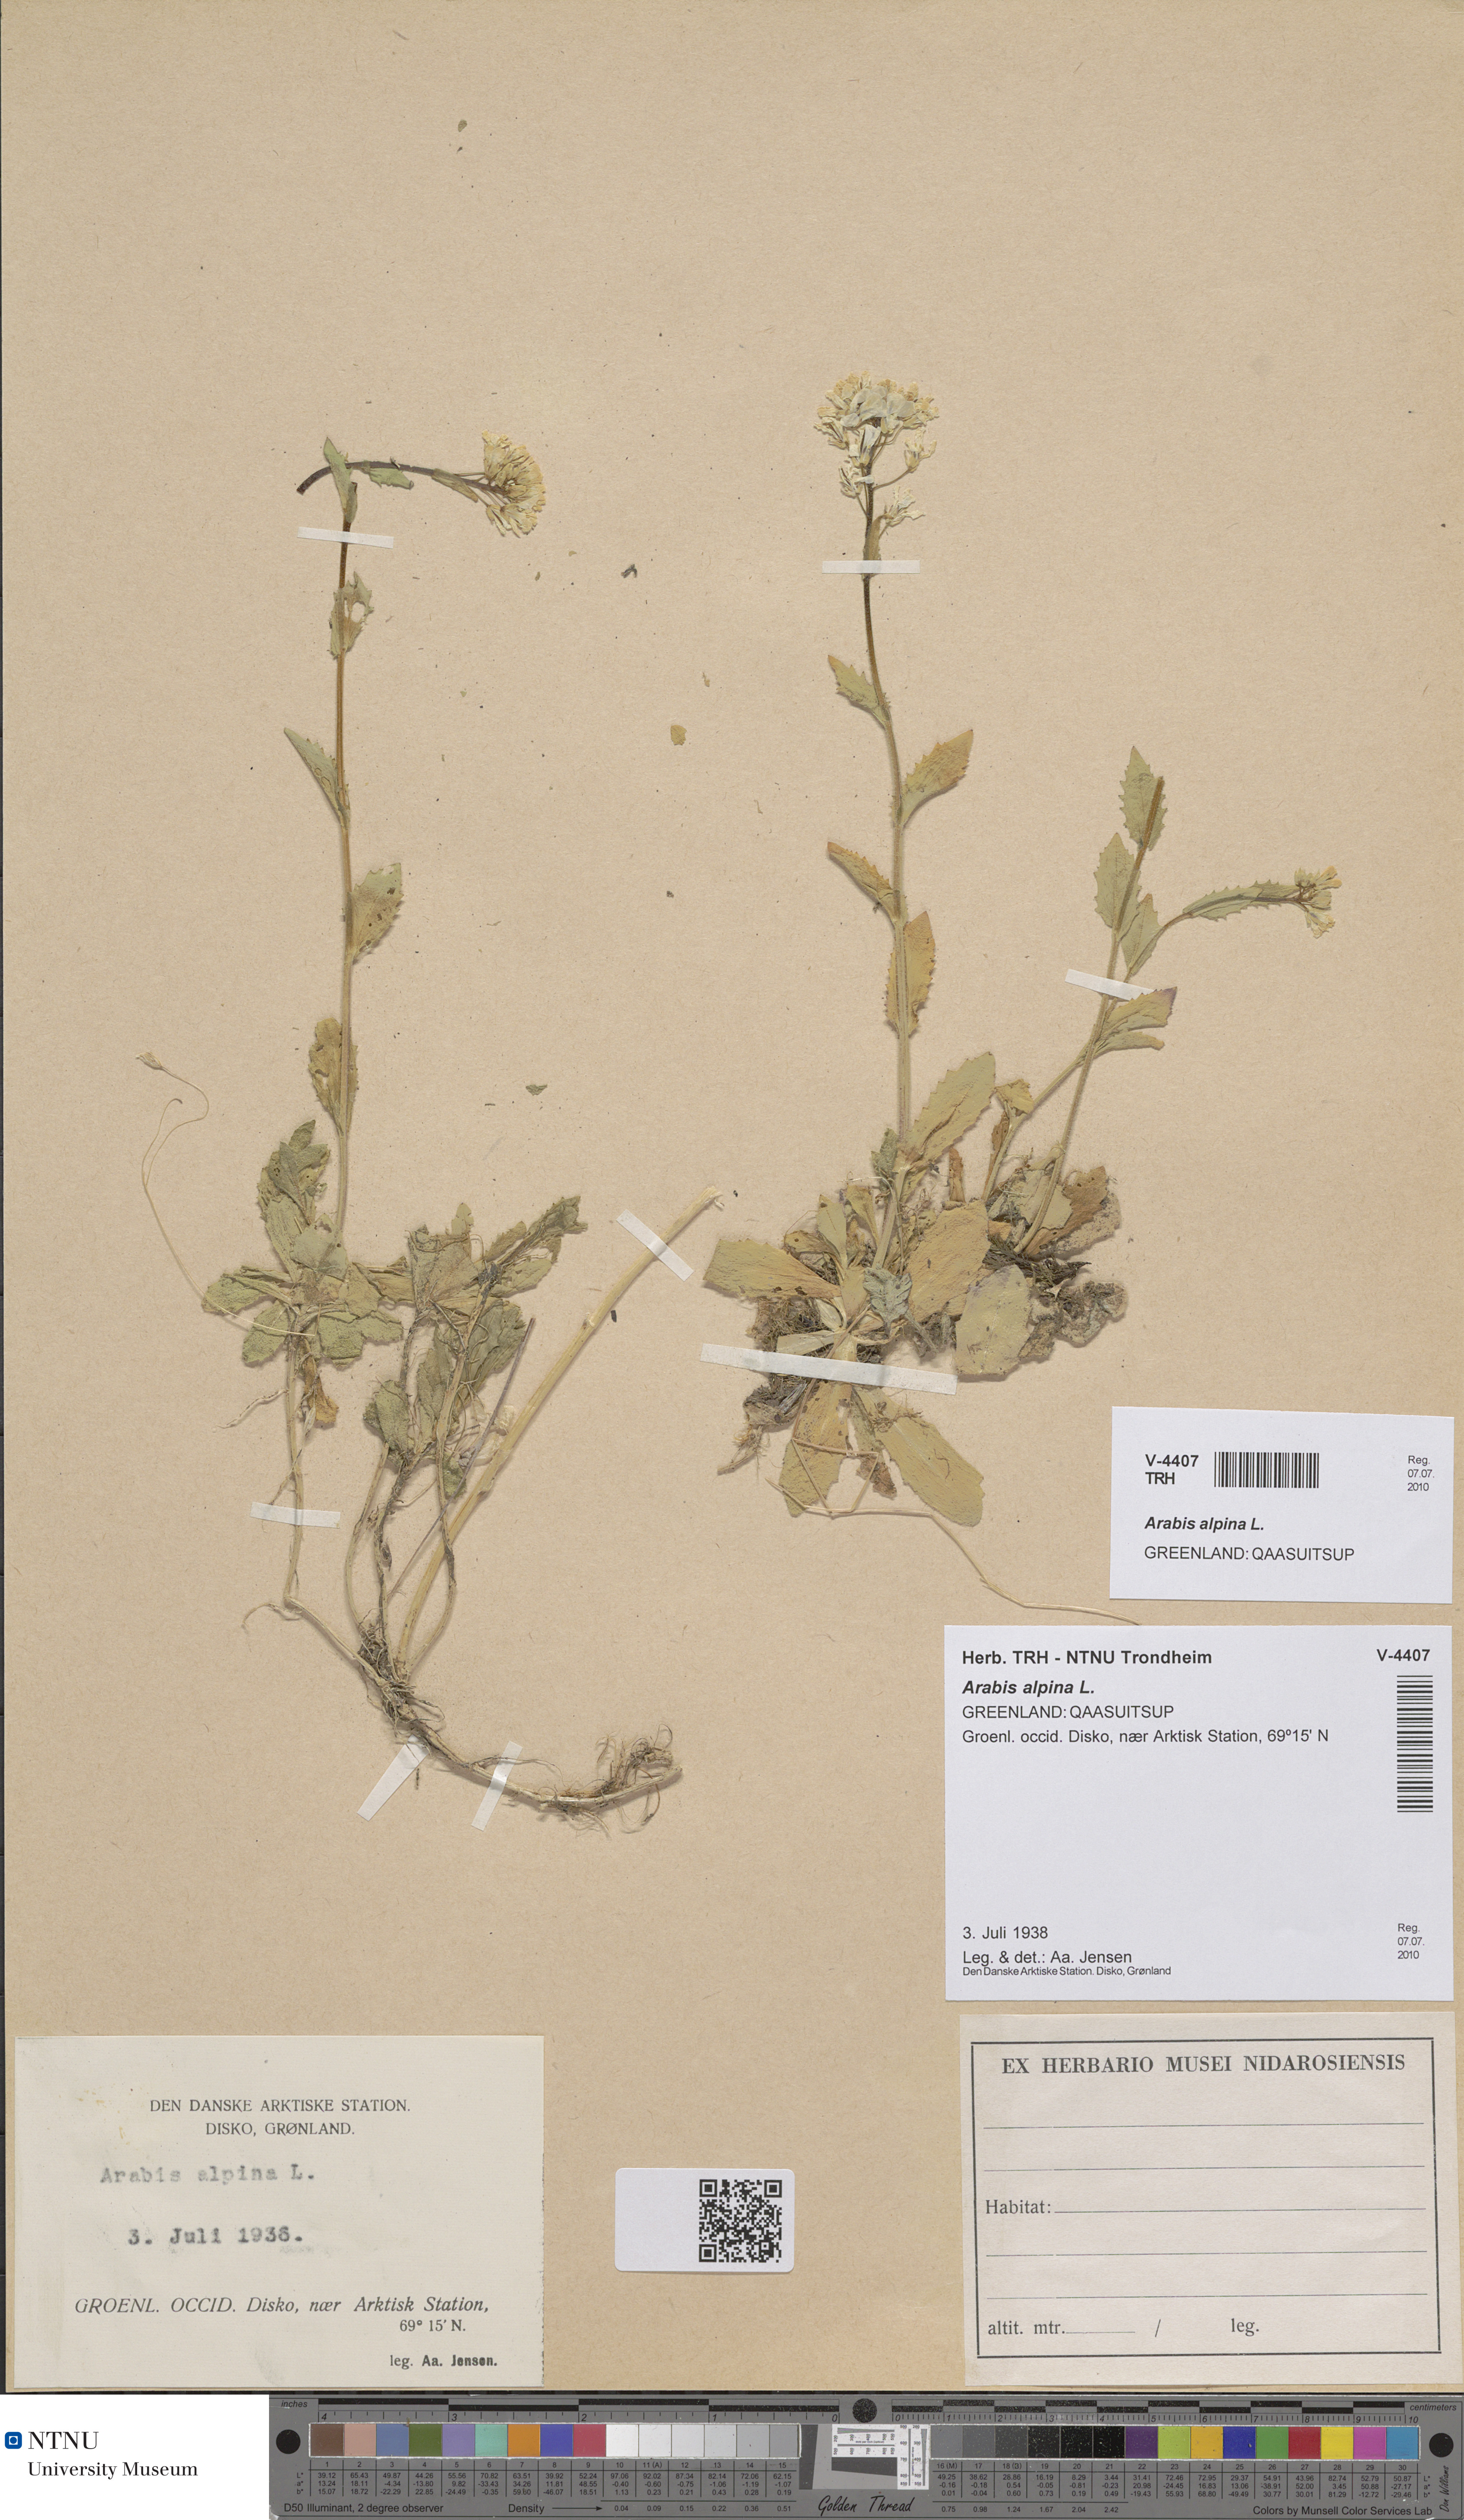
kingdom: Plantae
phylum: Tracheophyta
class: Magnoliopsida
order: Brassicales
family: Brassicaceae
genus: Arabis
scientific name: Arabis alpina
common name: Alpine rock-cress
